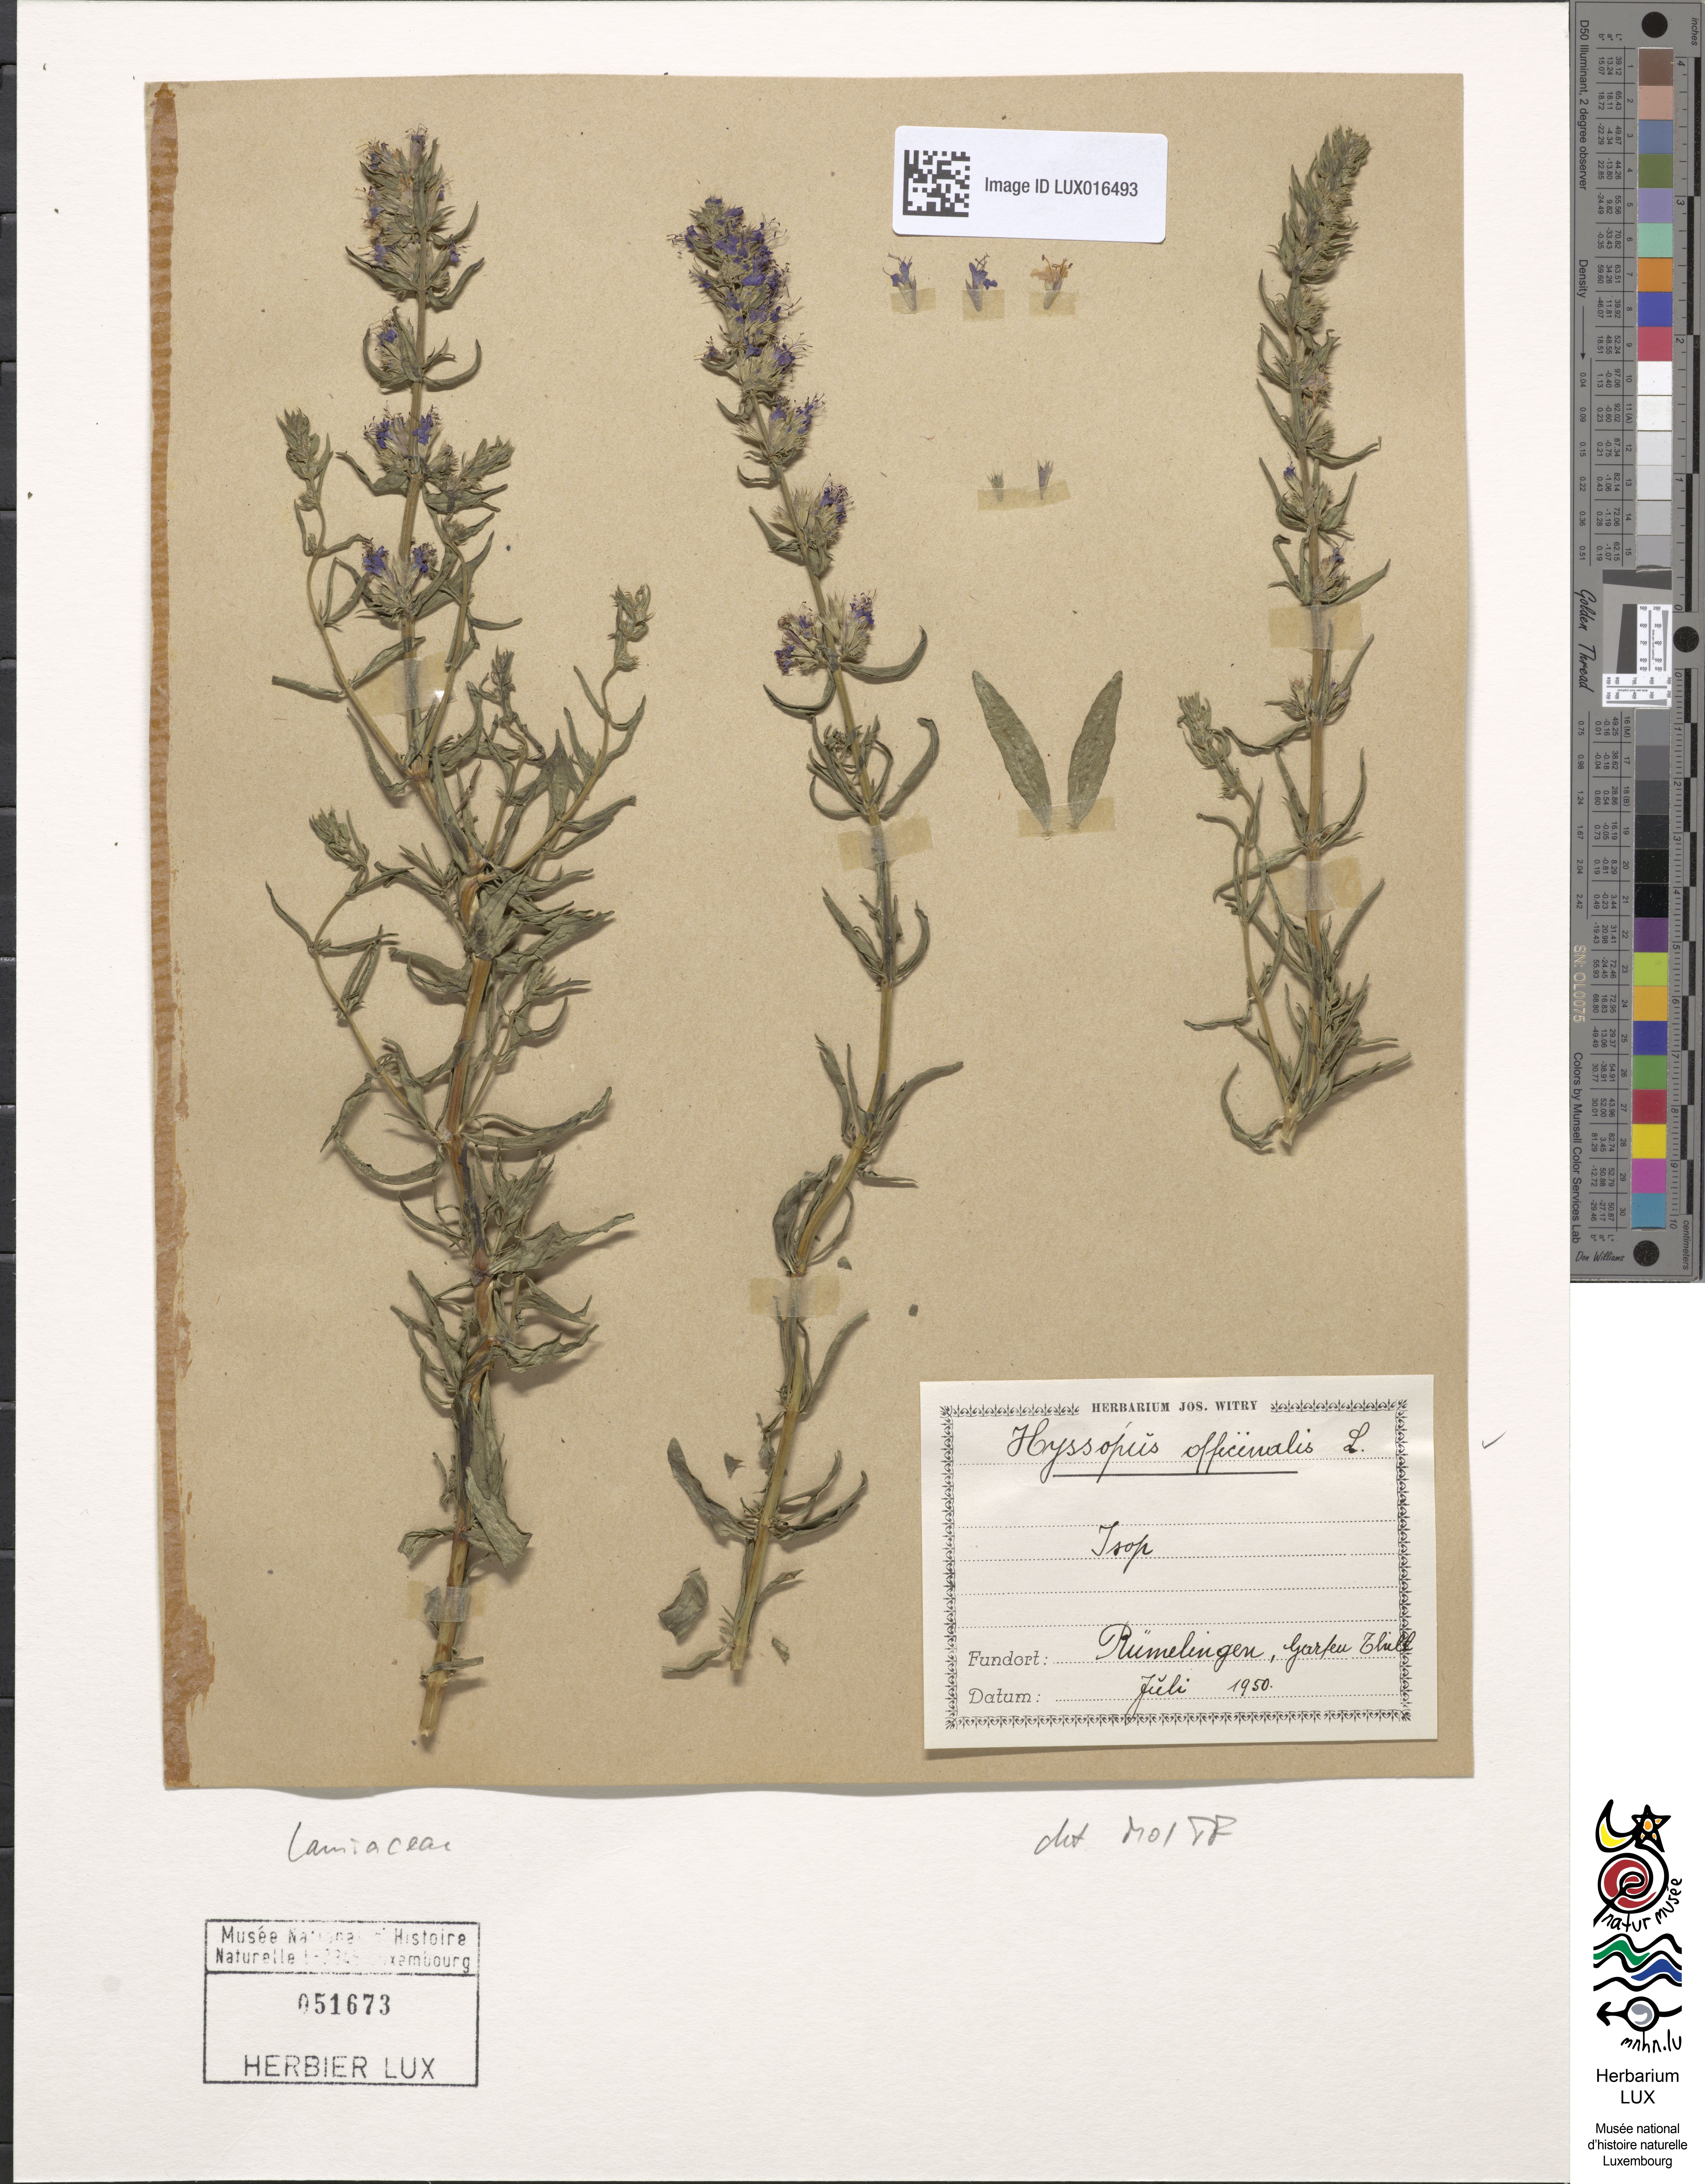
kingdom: Plantae
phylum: Tracheophyta
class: Magnoliopsida
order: Lamiales
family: Lamiaceae
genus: Hyssopus
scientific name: Hyssopus officinalis
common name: Hyssop
